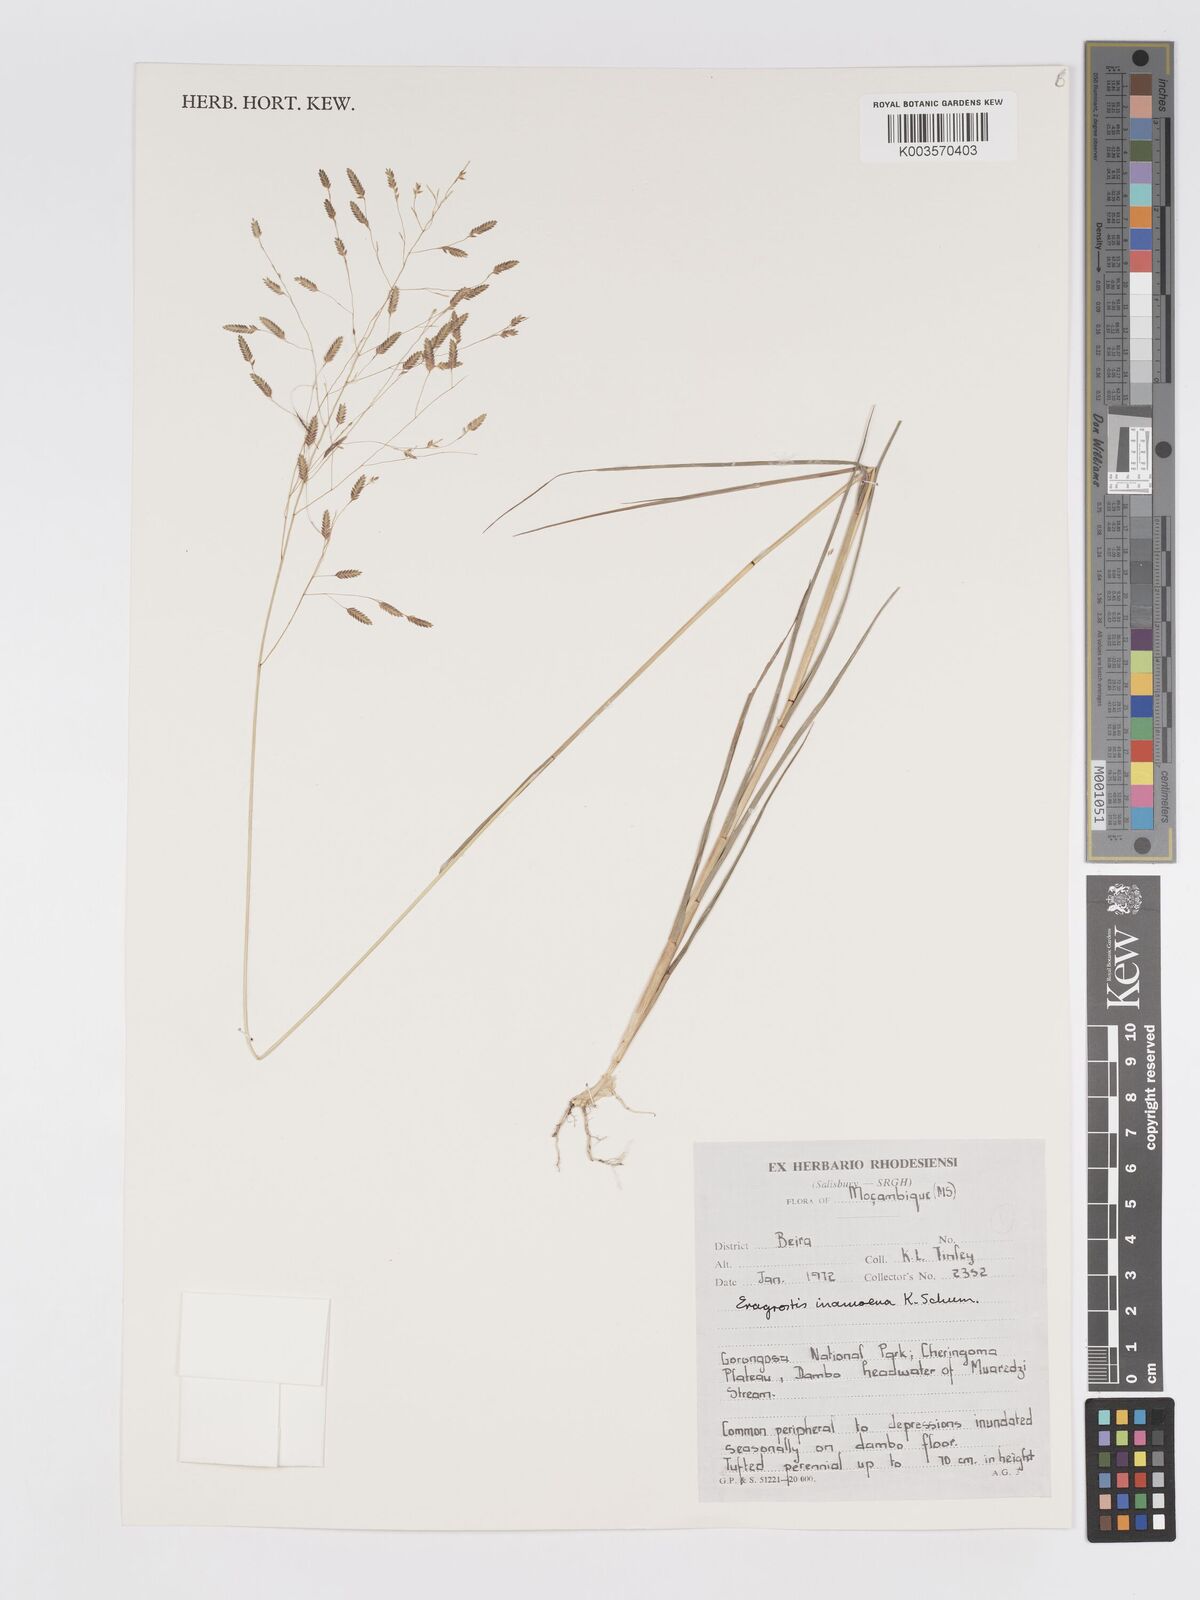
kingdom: Plantae
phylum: Tracheophyta
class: Liliopsida
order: Poales
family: Poaceae
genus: Eragrostis
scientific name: Eragrostis inamoena
